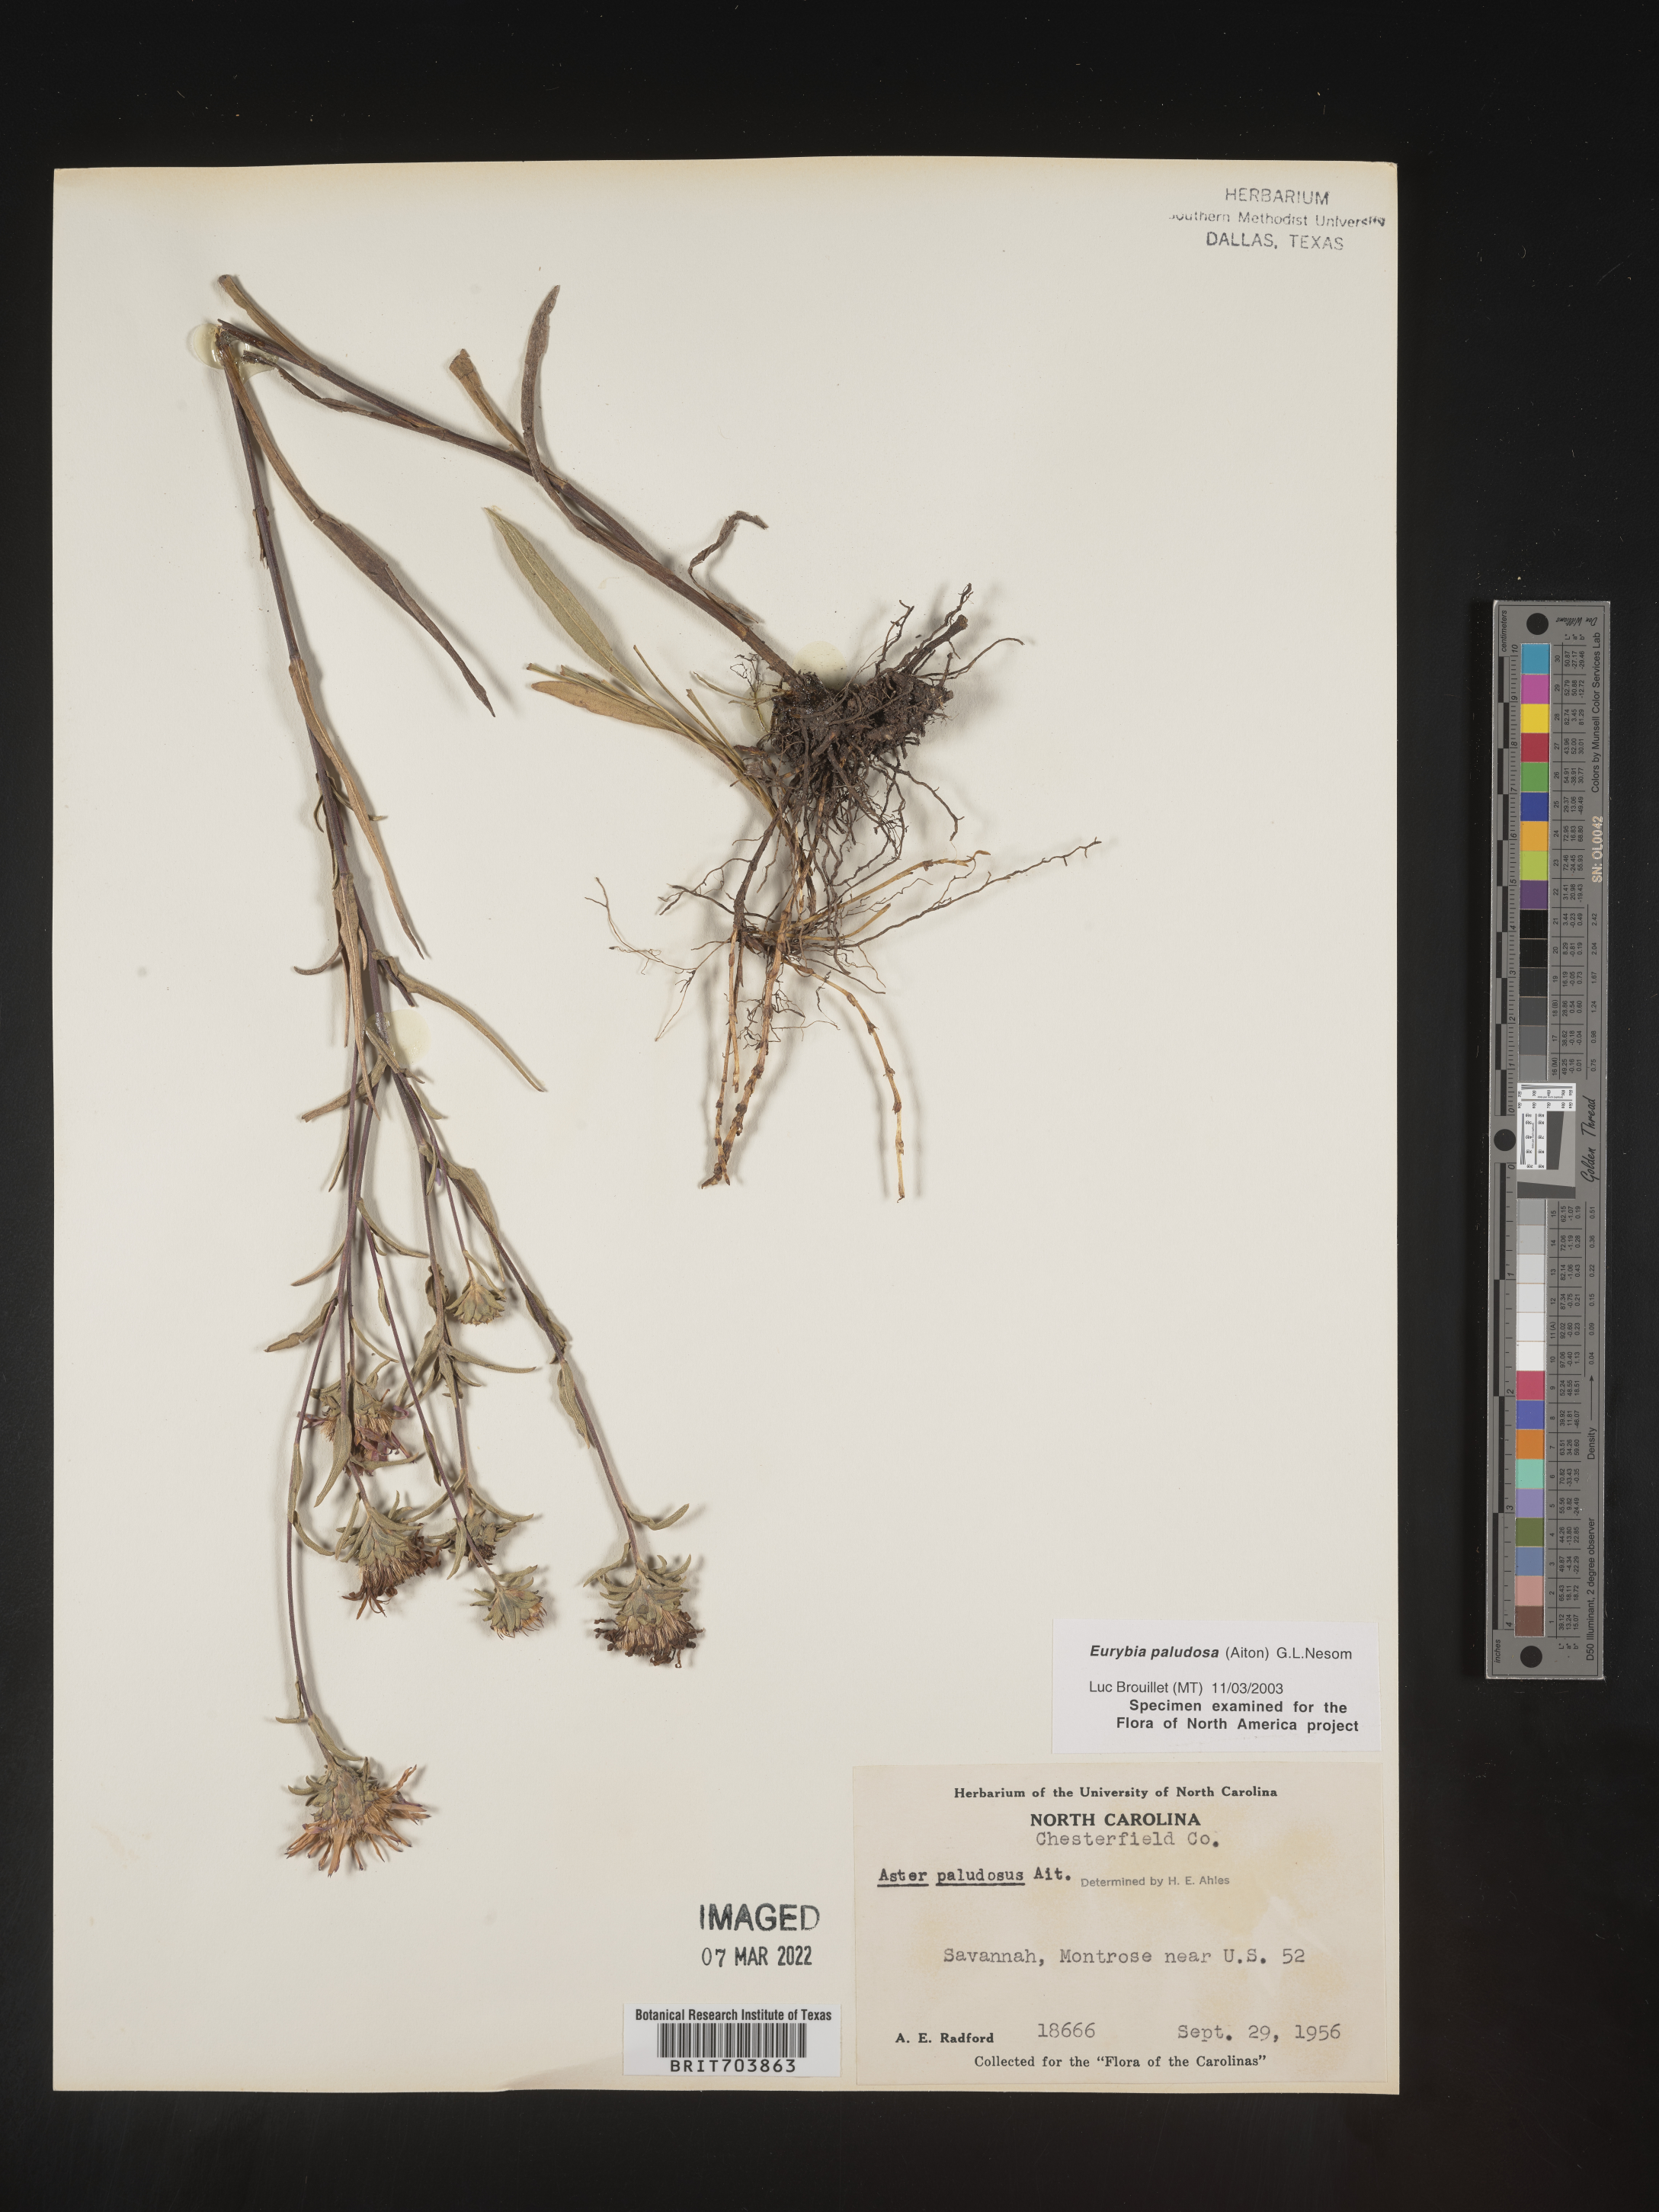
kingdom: Plantae
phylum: Tracheophyta
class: Magnoliopsida
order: Asterales
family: Asteraceae
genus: Eurybia
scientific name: Eurybia paludosa
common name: Southern swamp aster
